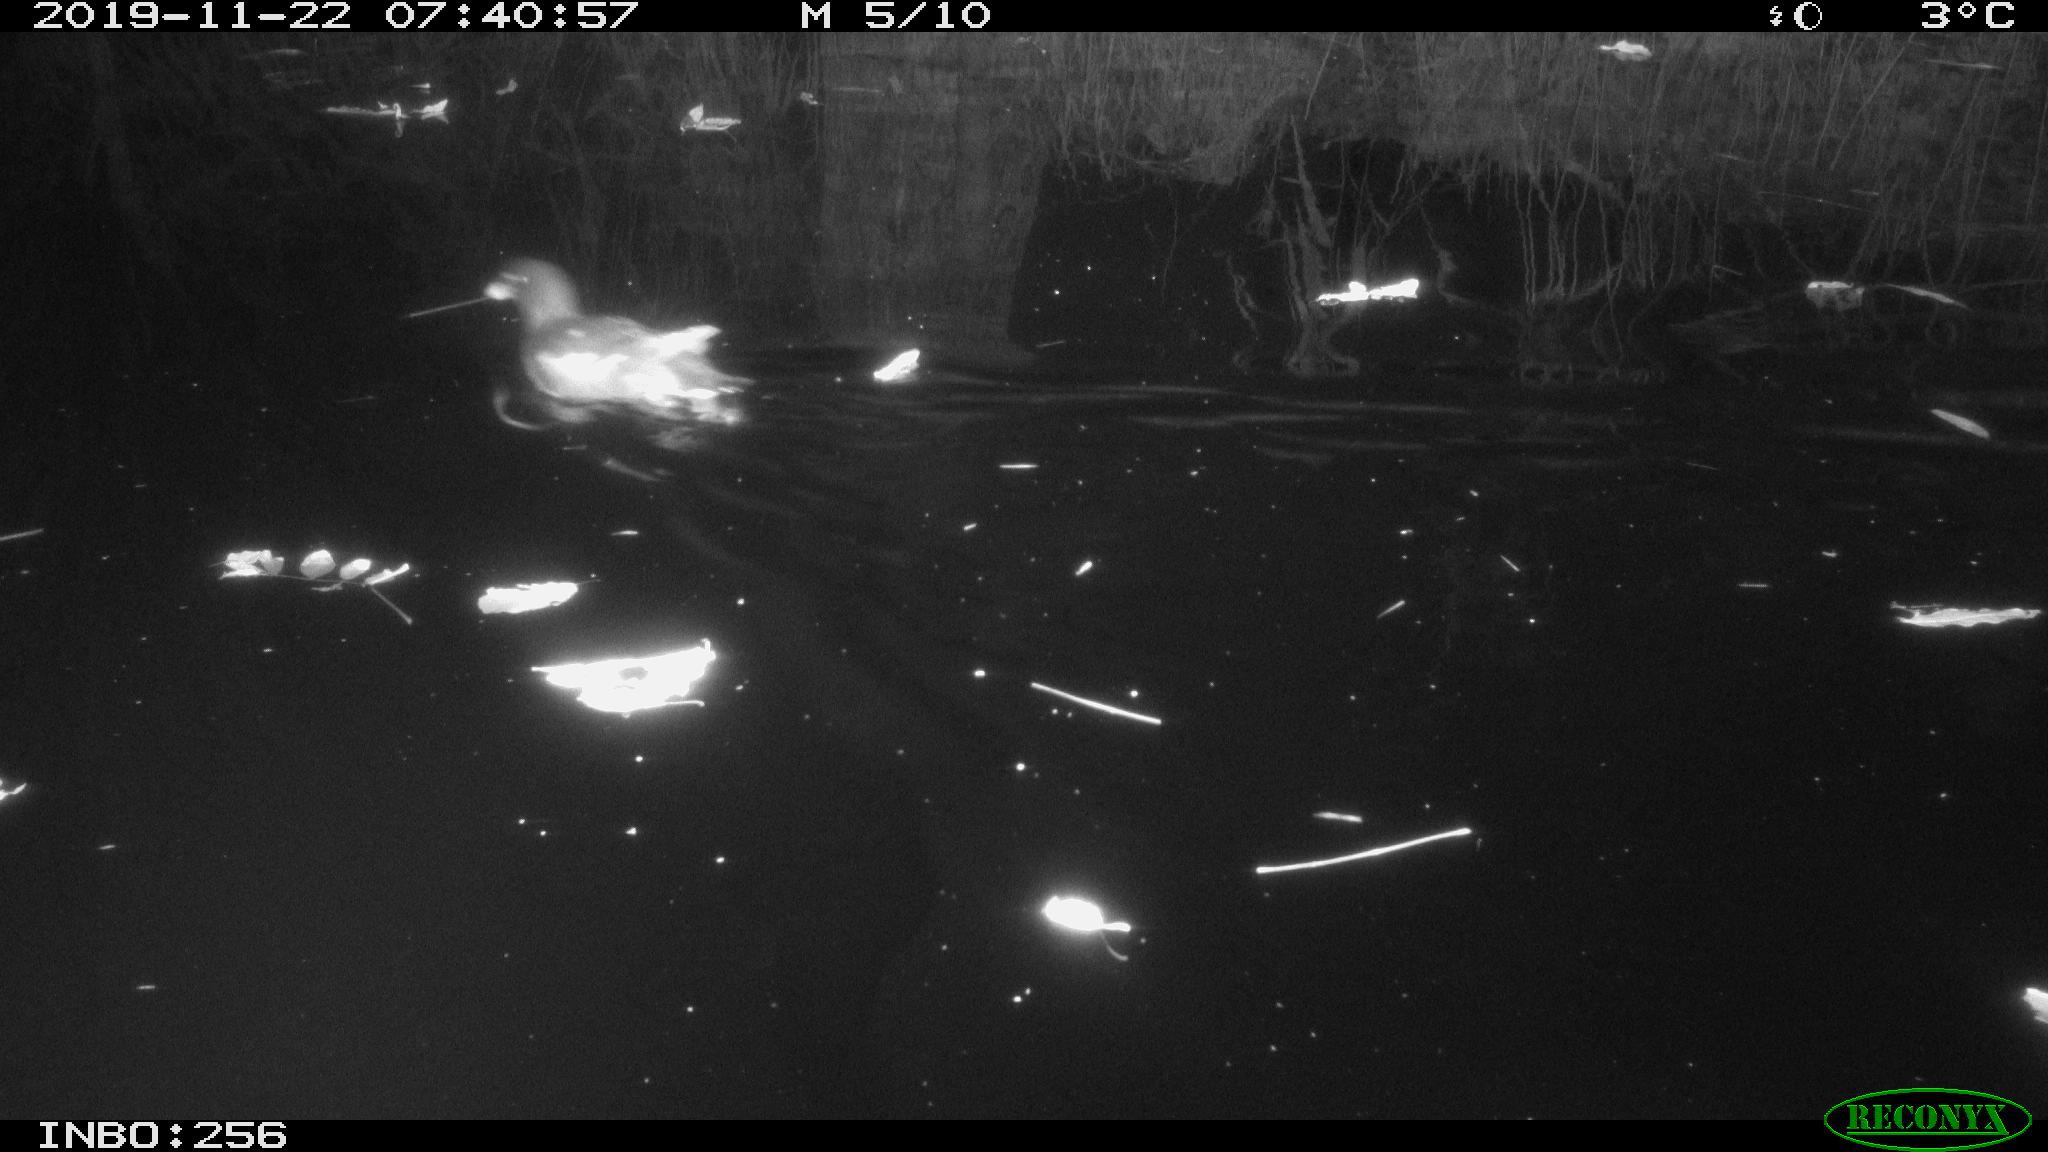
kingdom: Animalia
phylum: Chordata
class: Aves
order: Gruiformes
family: Rallidae
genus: Gallinula
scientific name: Gallinula chloropus
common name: Common moorhen
